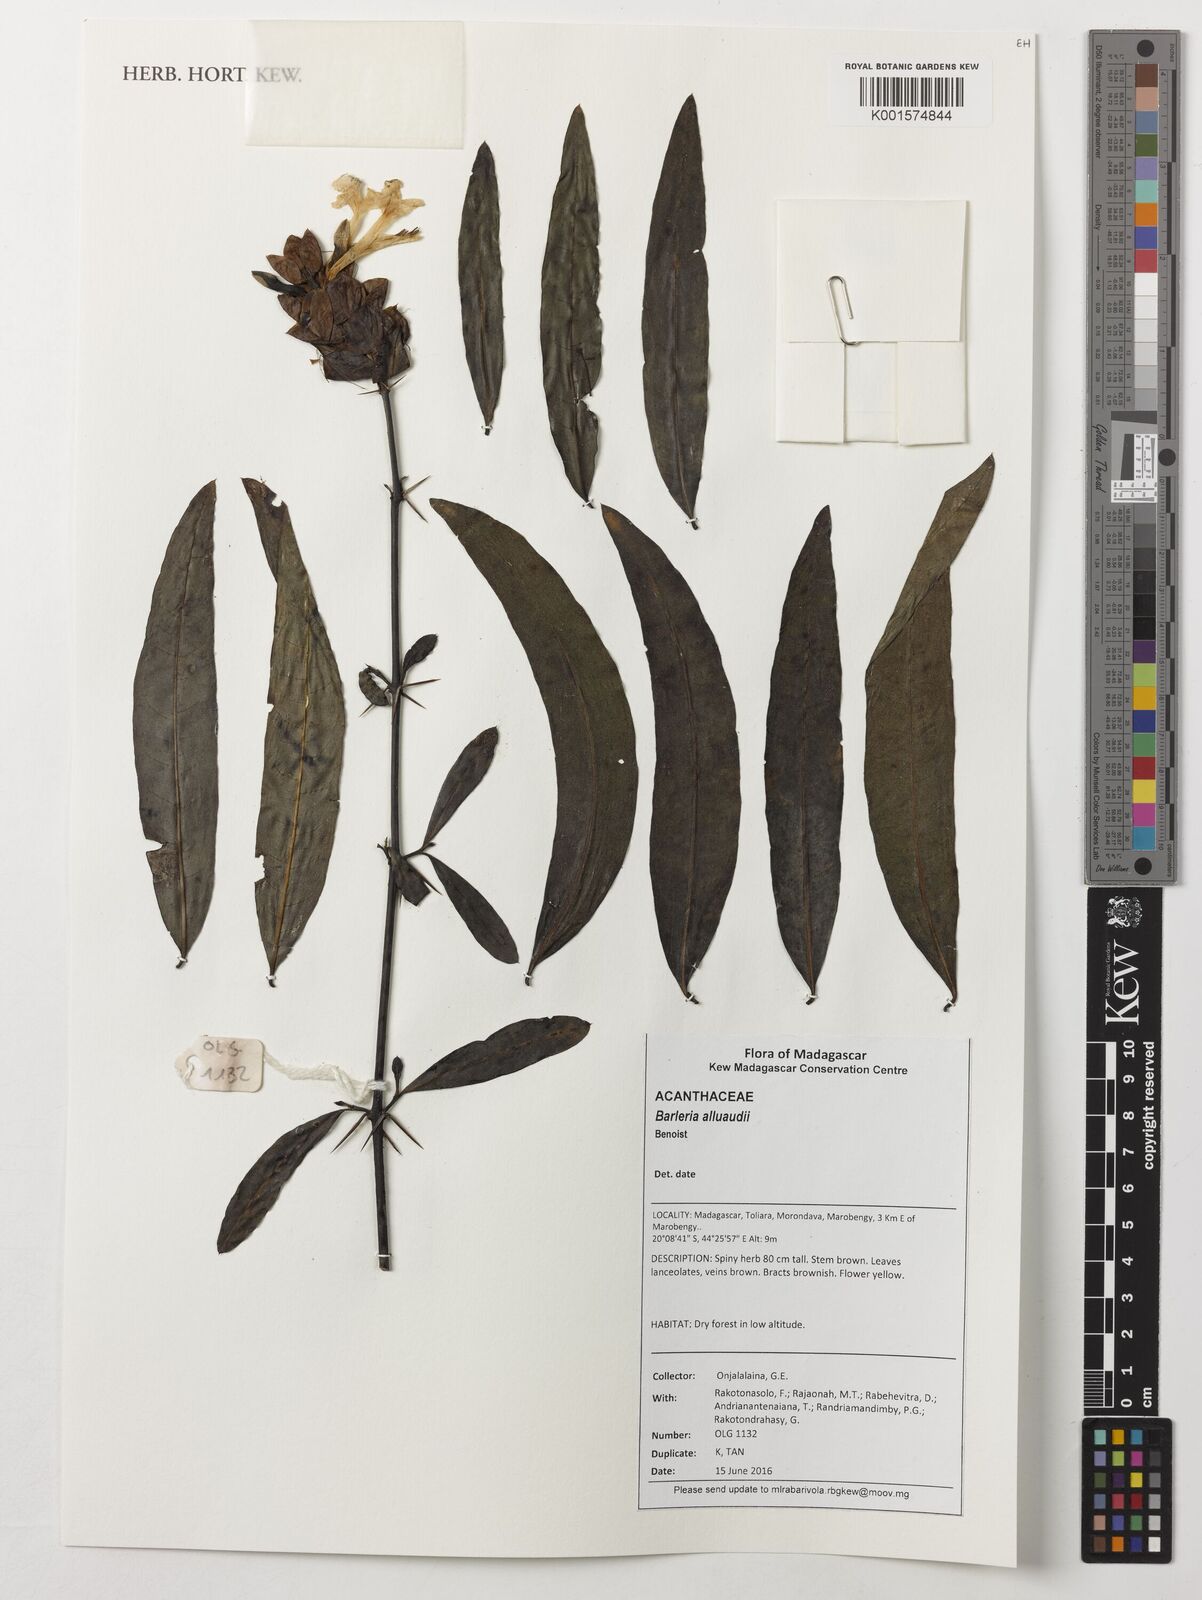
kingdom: Plantae
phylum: Tracheophyta
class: Magnoliopsida
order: Lamiales
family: Acanthaceae
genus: Barleria
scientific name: Barleria alluaudii
